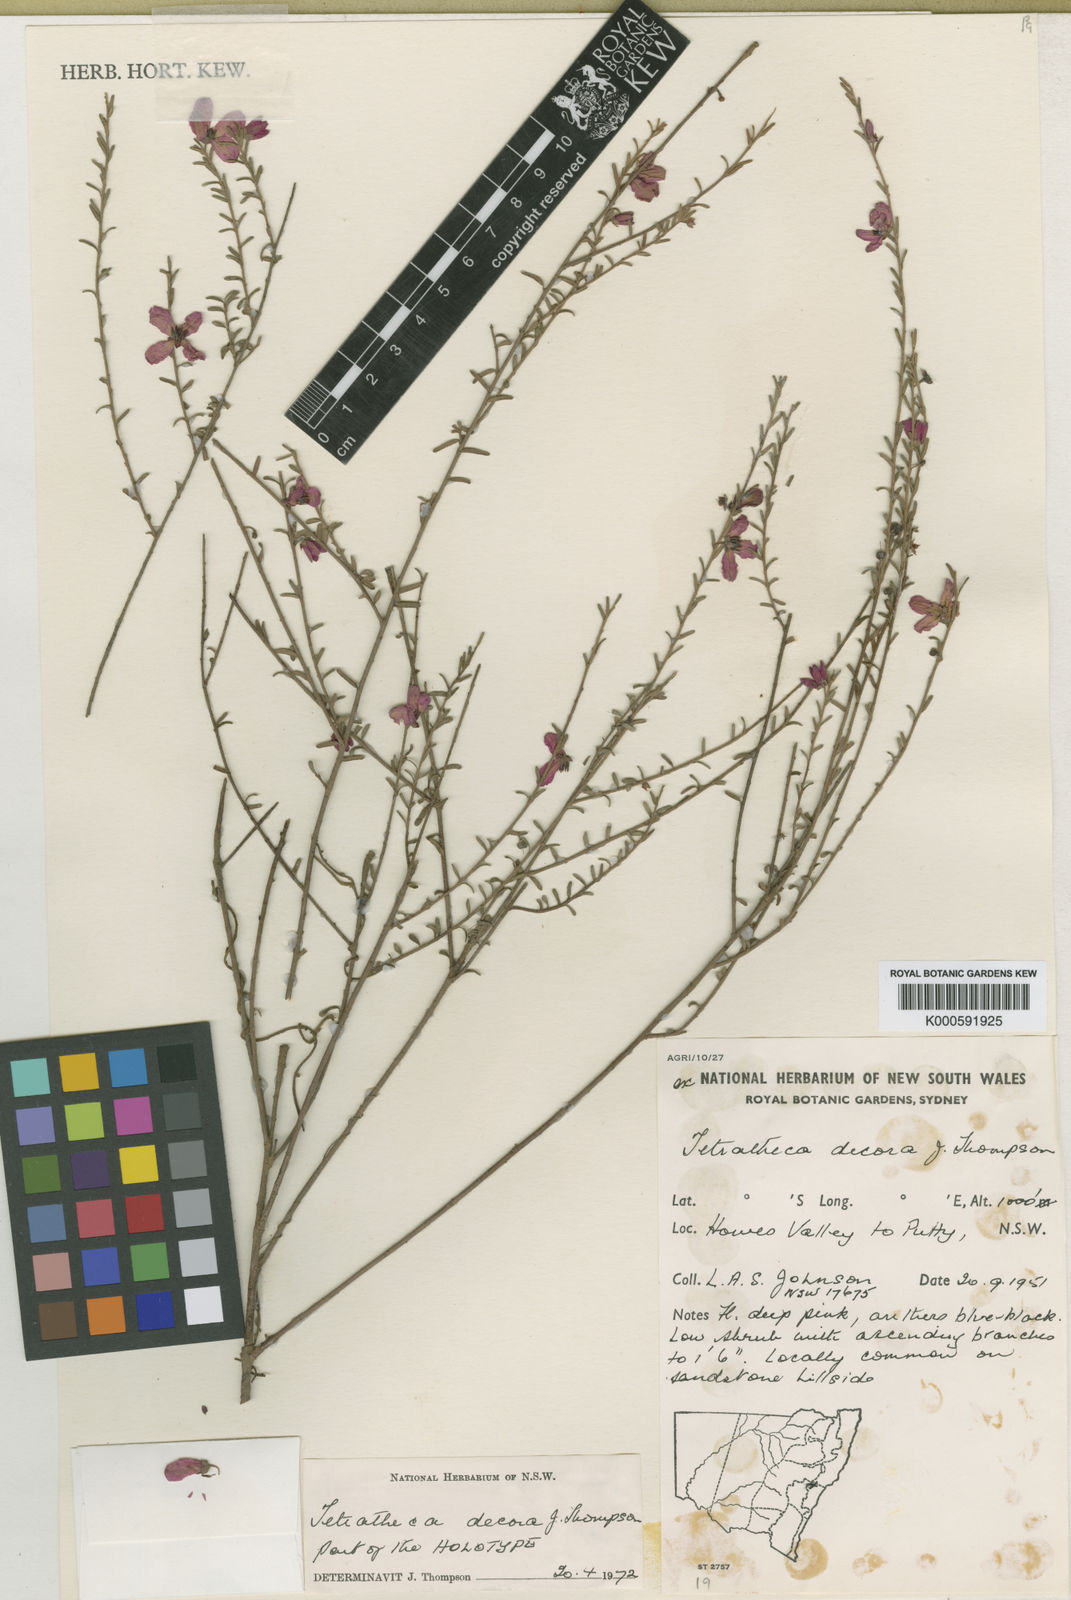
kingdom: Plantae
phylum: Tracheophyta
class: Magnoliopsida
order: Oxalidales
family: Elaeocarpaceae
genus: Tetratheca
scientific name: Tetratheca decora
